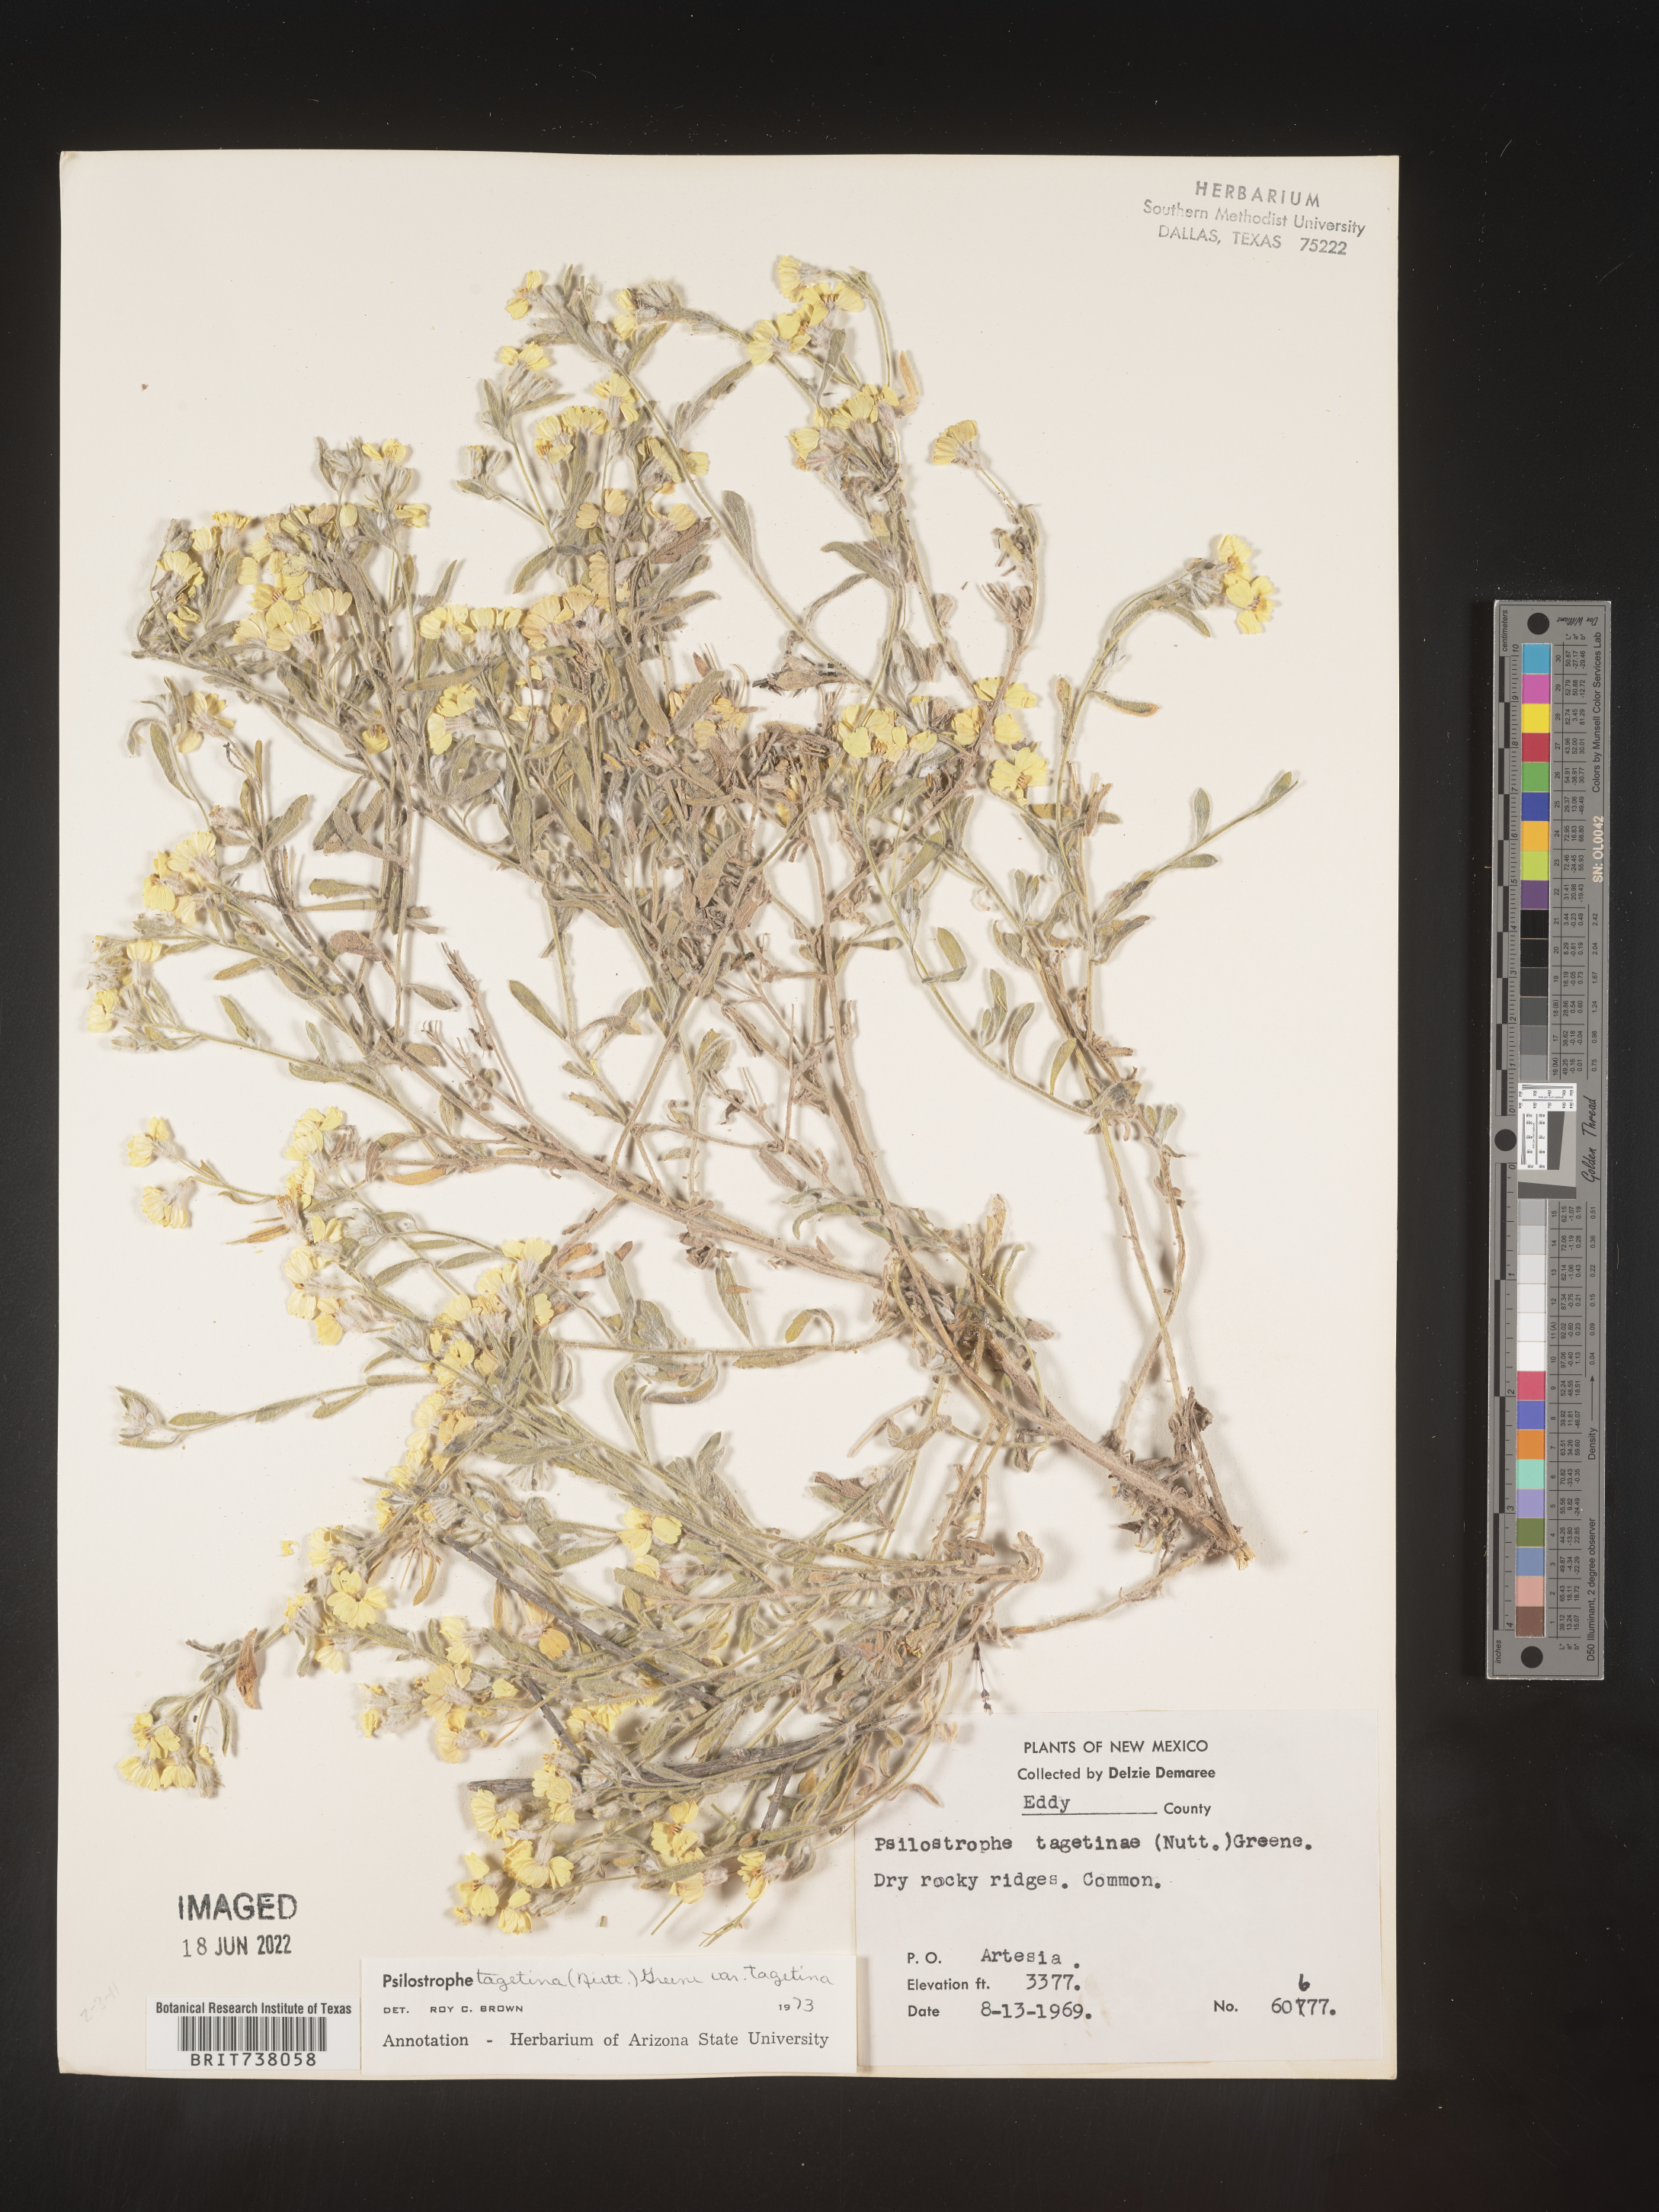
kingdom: Plantae
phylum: Tracheophyta
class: Magnoliopsida
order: Asterales
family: Asteraceae
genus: Psilostrophe
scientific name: Psilostrophe tagetina
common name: Marigold paper-flower
